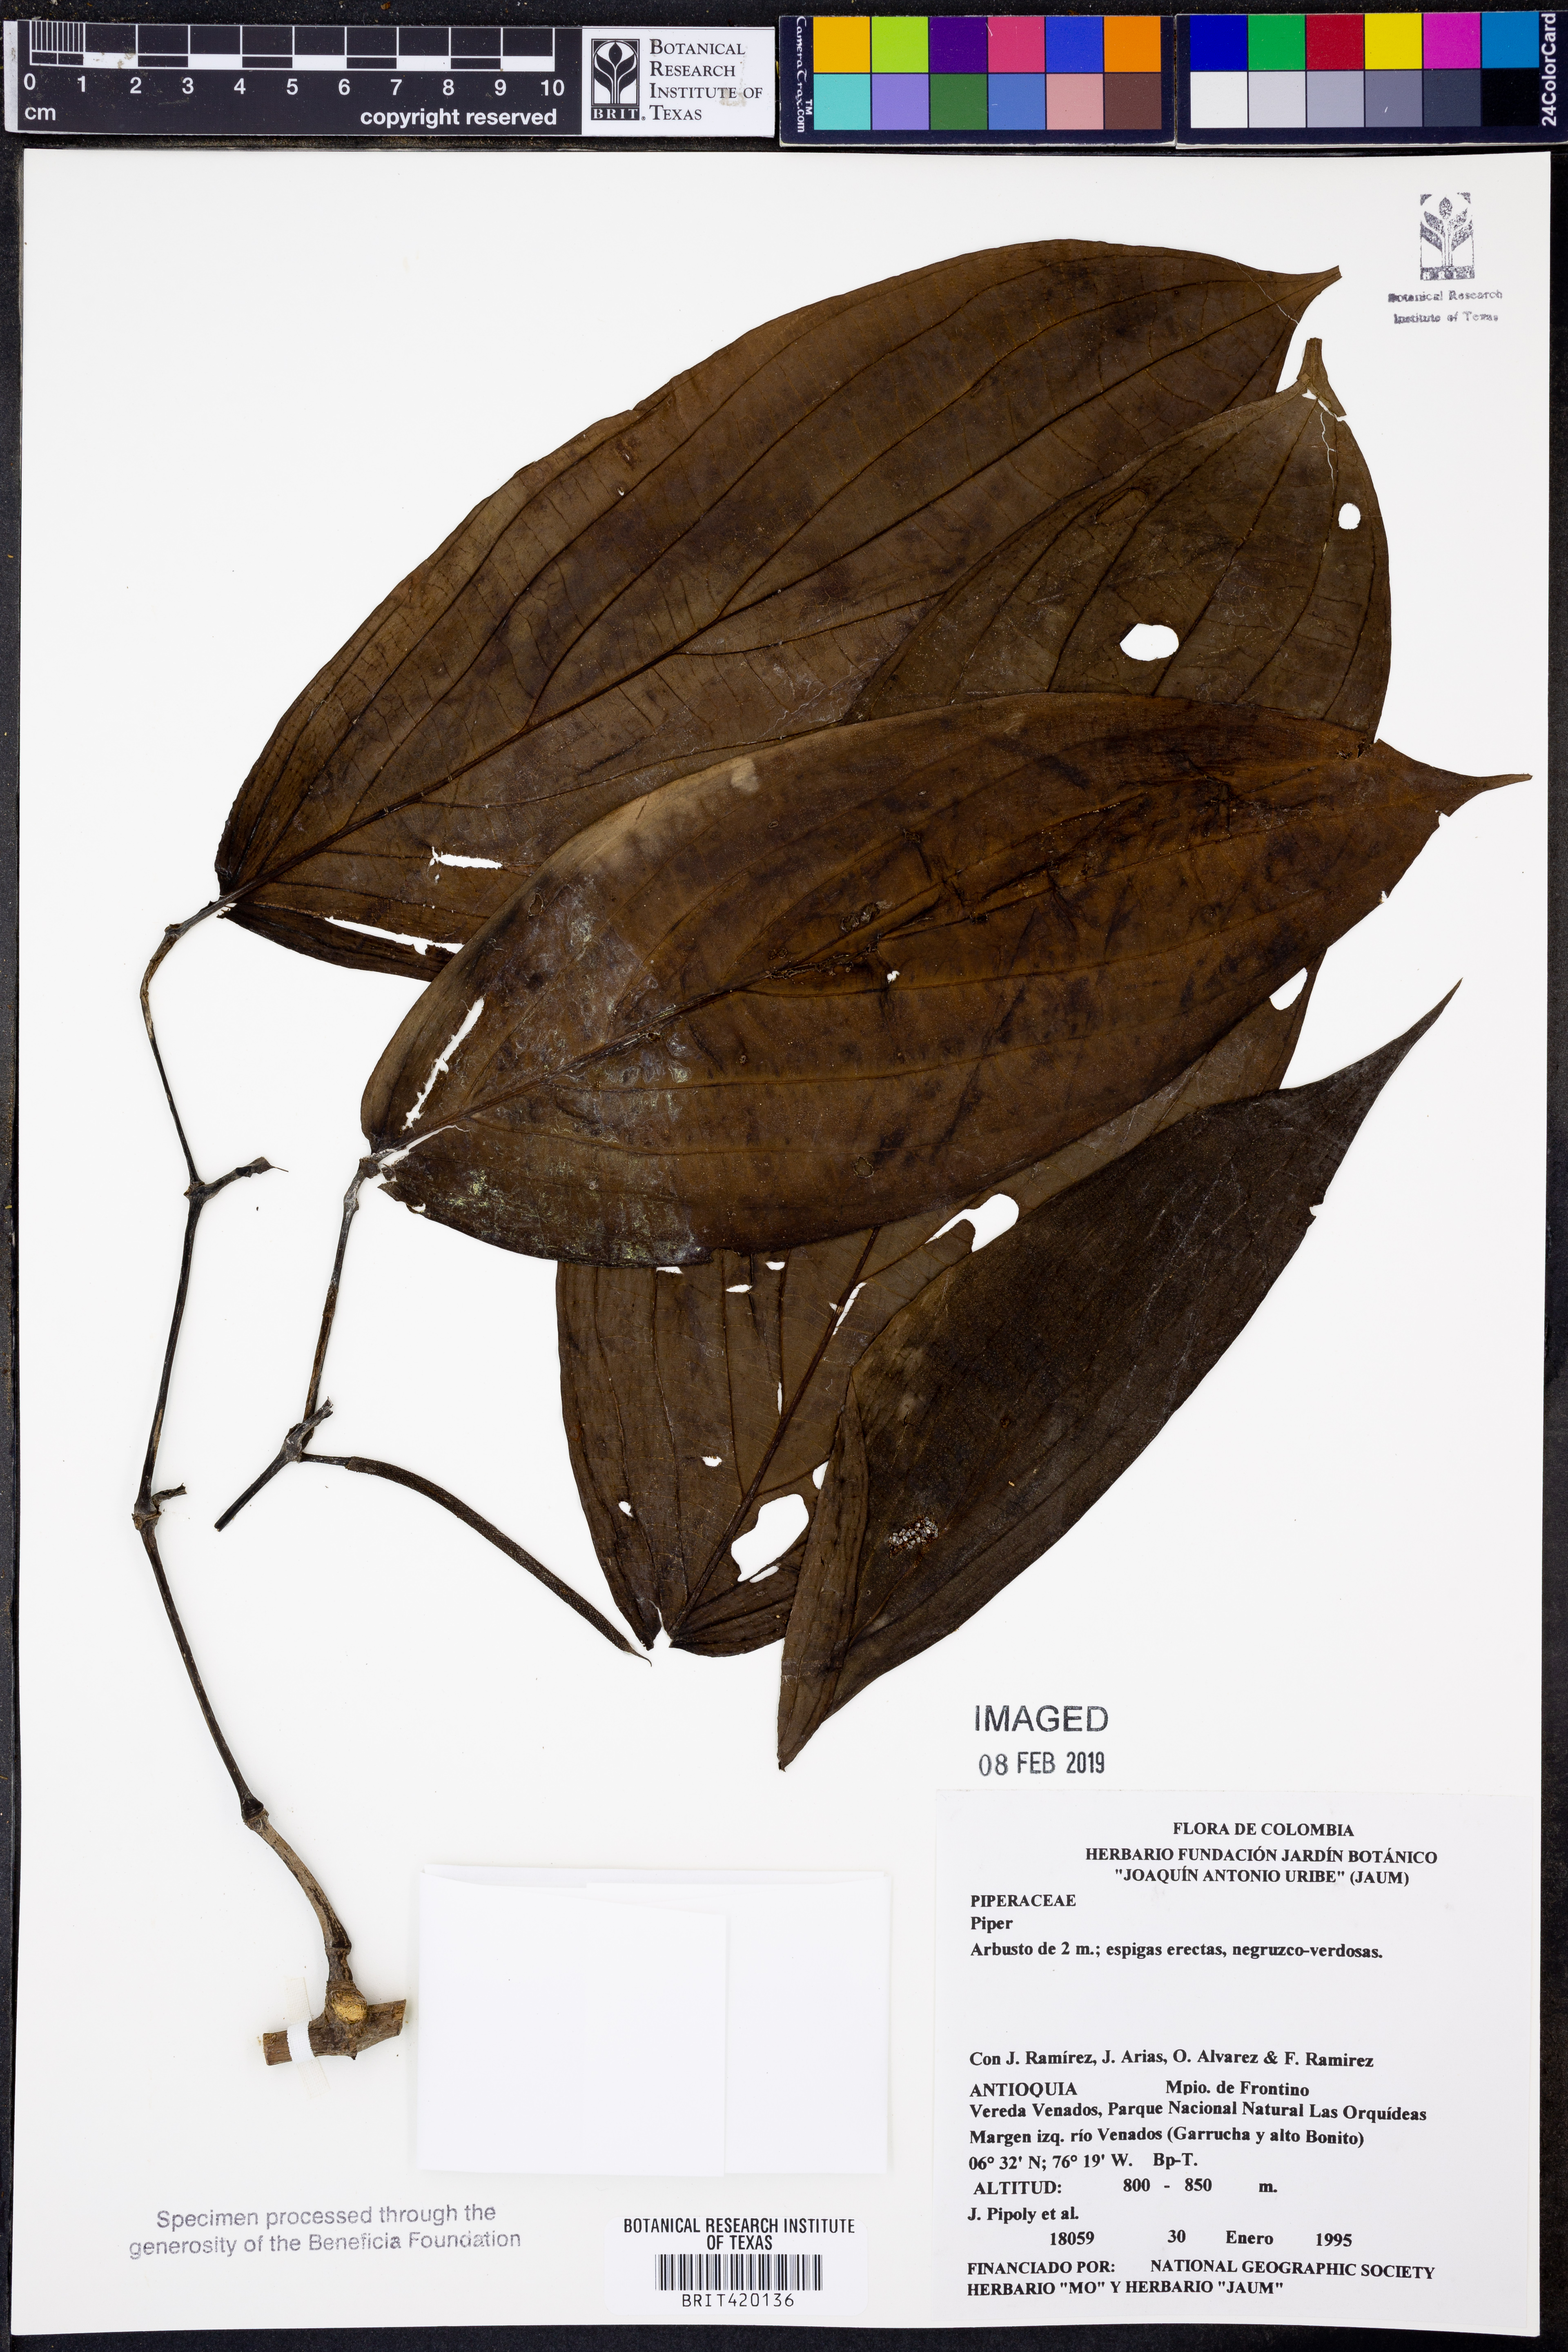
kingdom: Plantae
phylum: Tracheophyta
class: Magnoliopsida
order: Piperales
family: Piperaceae
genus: Piper
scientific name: Piper
